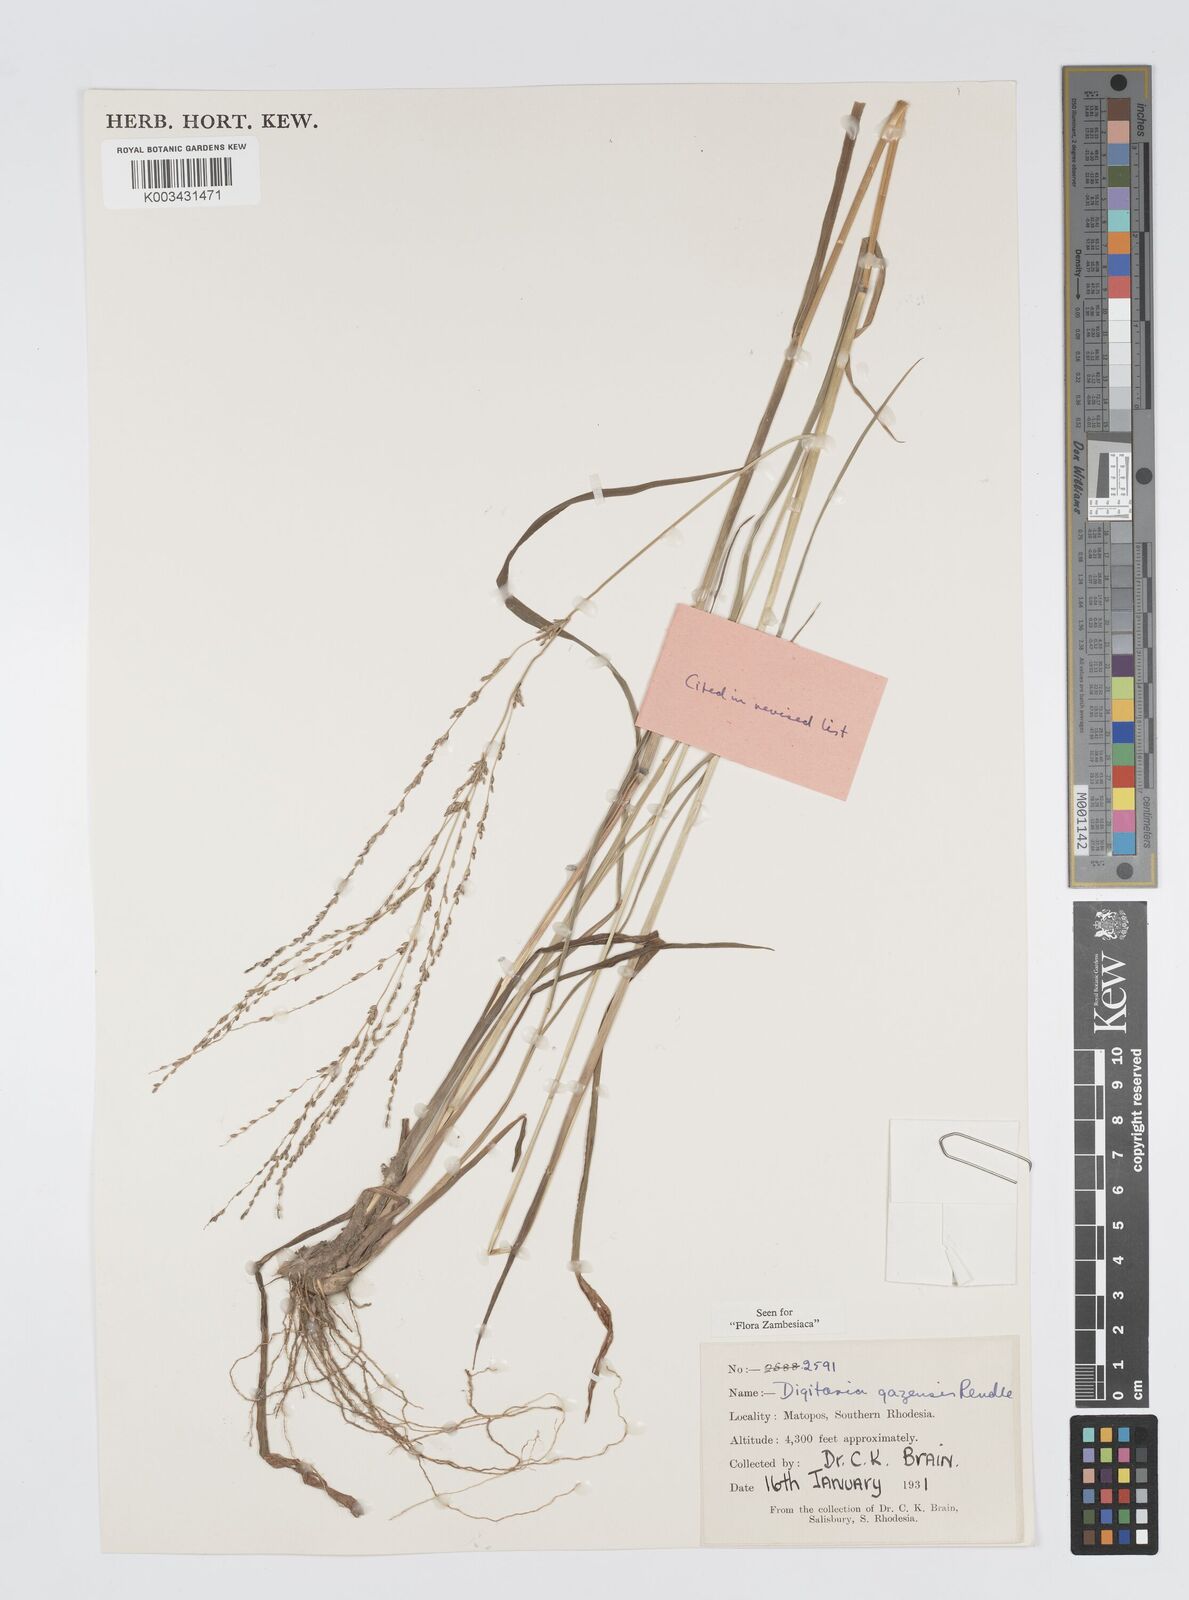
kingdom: Plantae
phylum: Tracheophyta
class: Liliopsida
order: Poales
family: Poaceae
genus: Digitaria
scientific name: Digitaria gazensis
